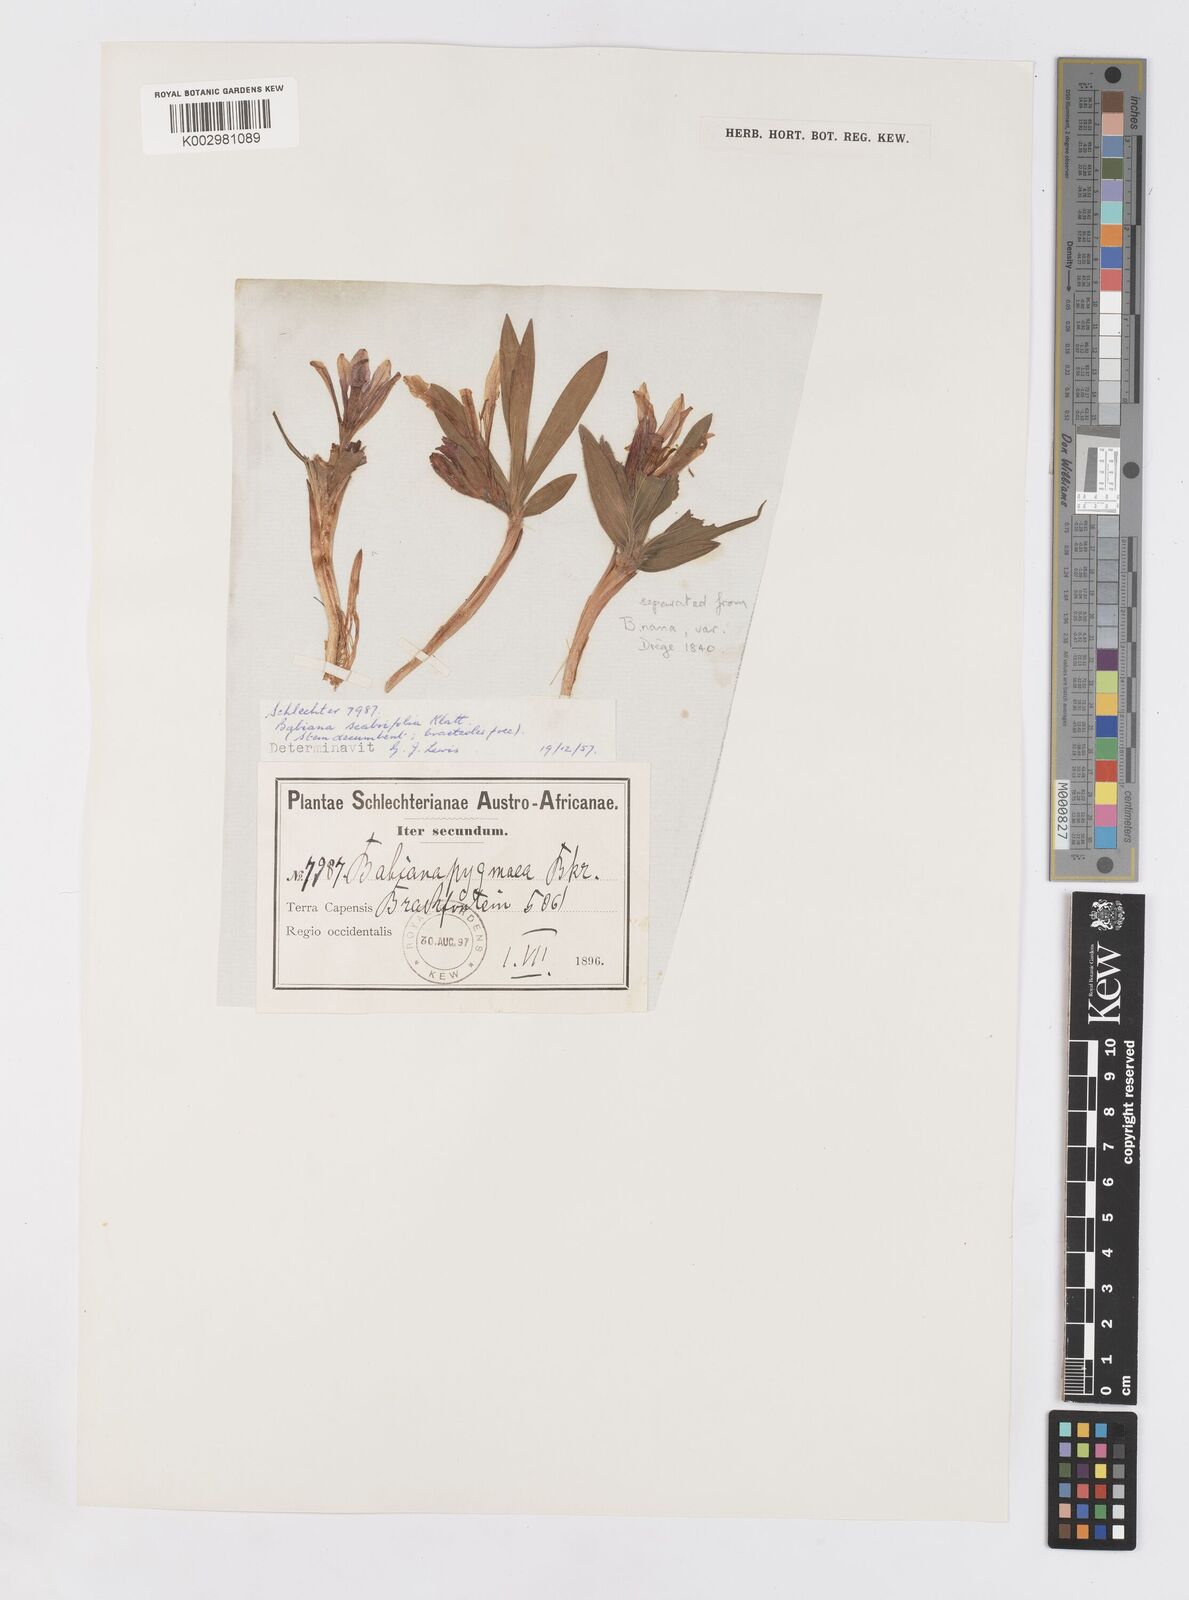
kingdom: Plantae
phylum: Tracheophyta
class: Liliopsida
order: Asparagales
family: Iridaceae
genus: Babiana
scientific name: Babiana scabrifolia
